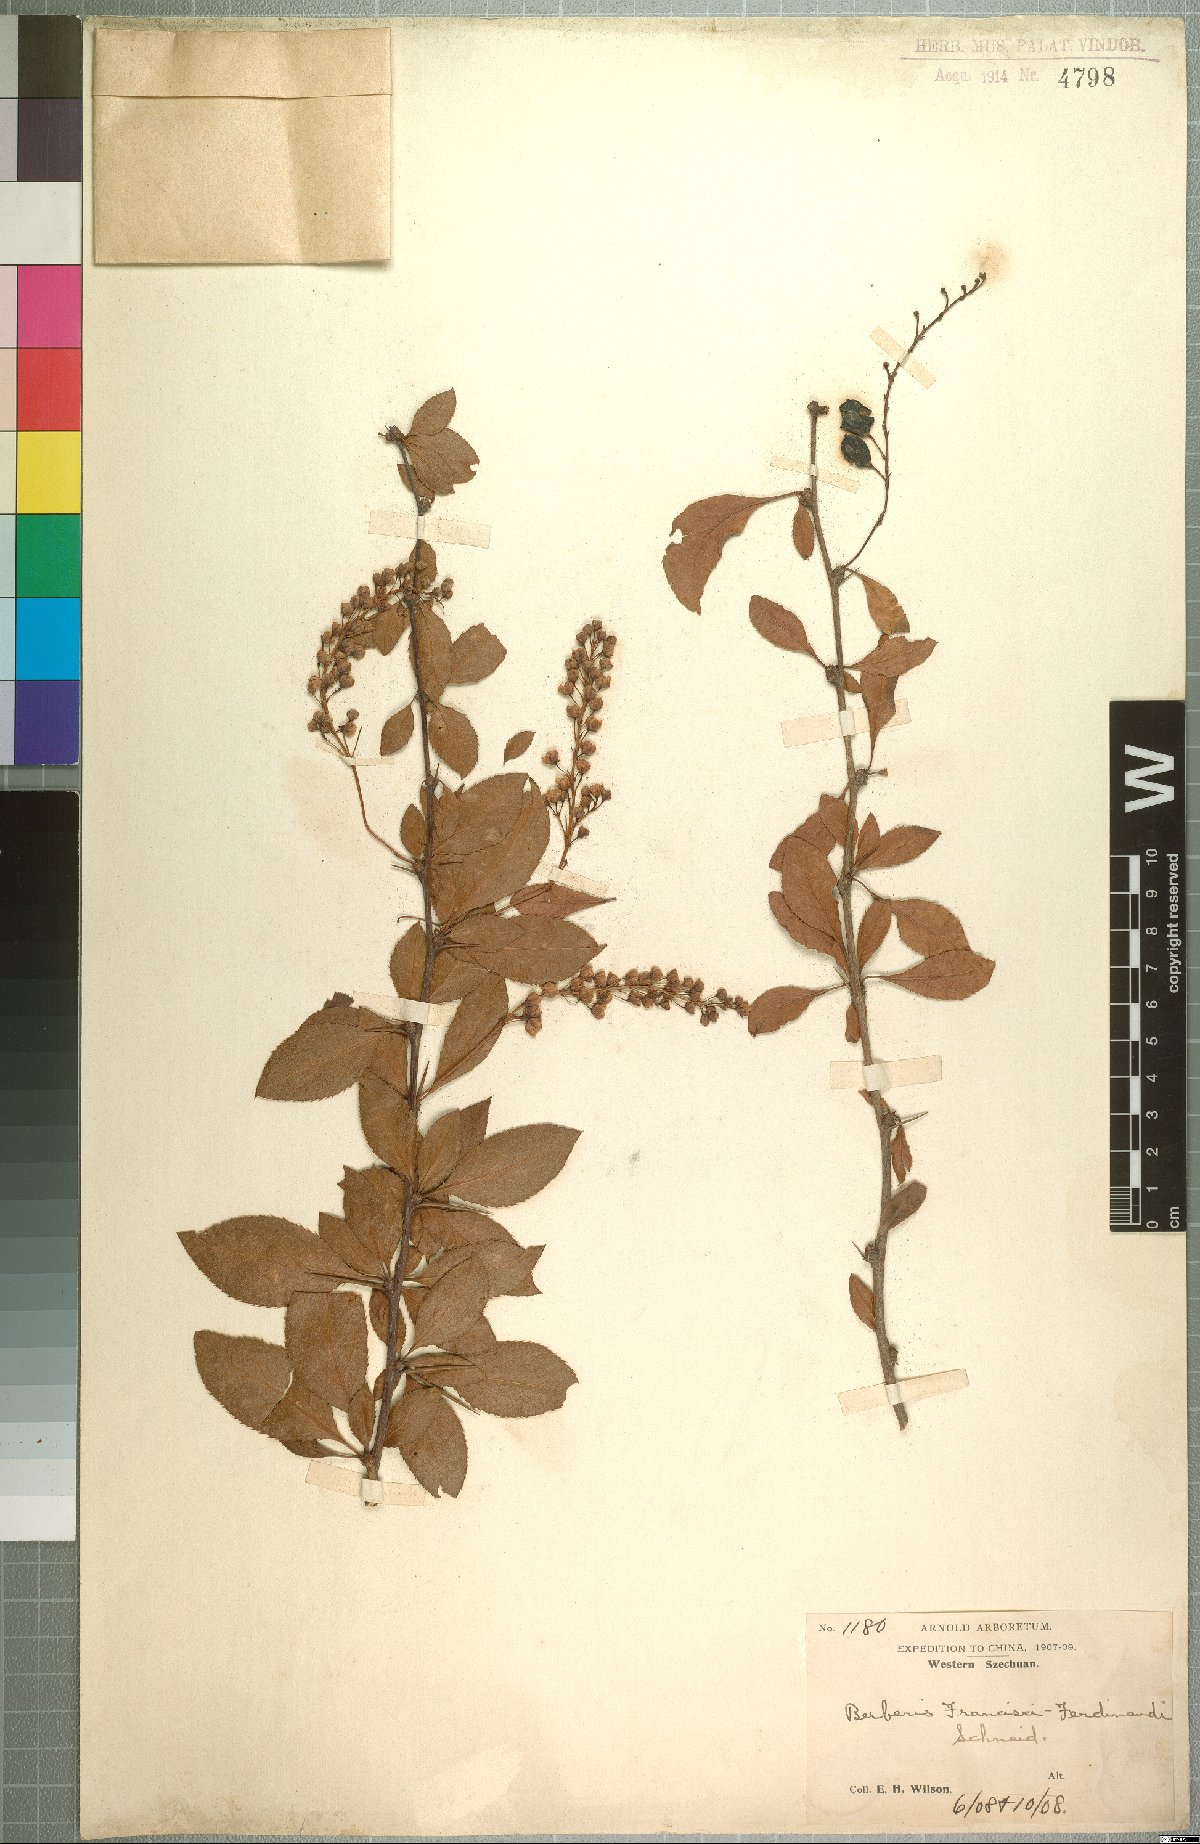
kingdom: Plantae
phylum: Tracheophyta
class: Magnoliopsida
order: Ranunculales
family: Berberidaceae
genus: Berberis
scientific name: Berberis francisci-ferdinandi
